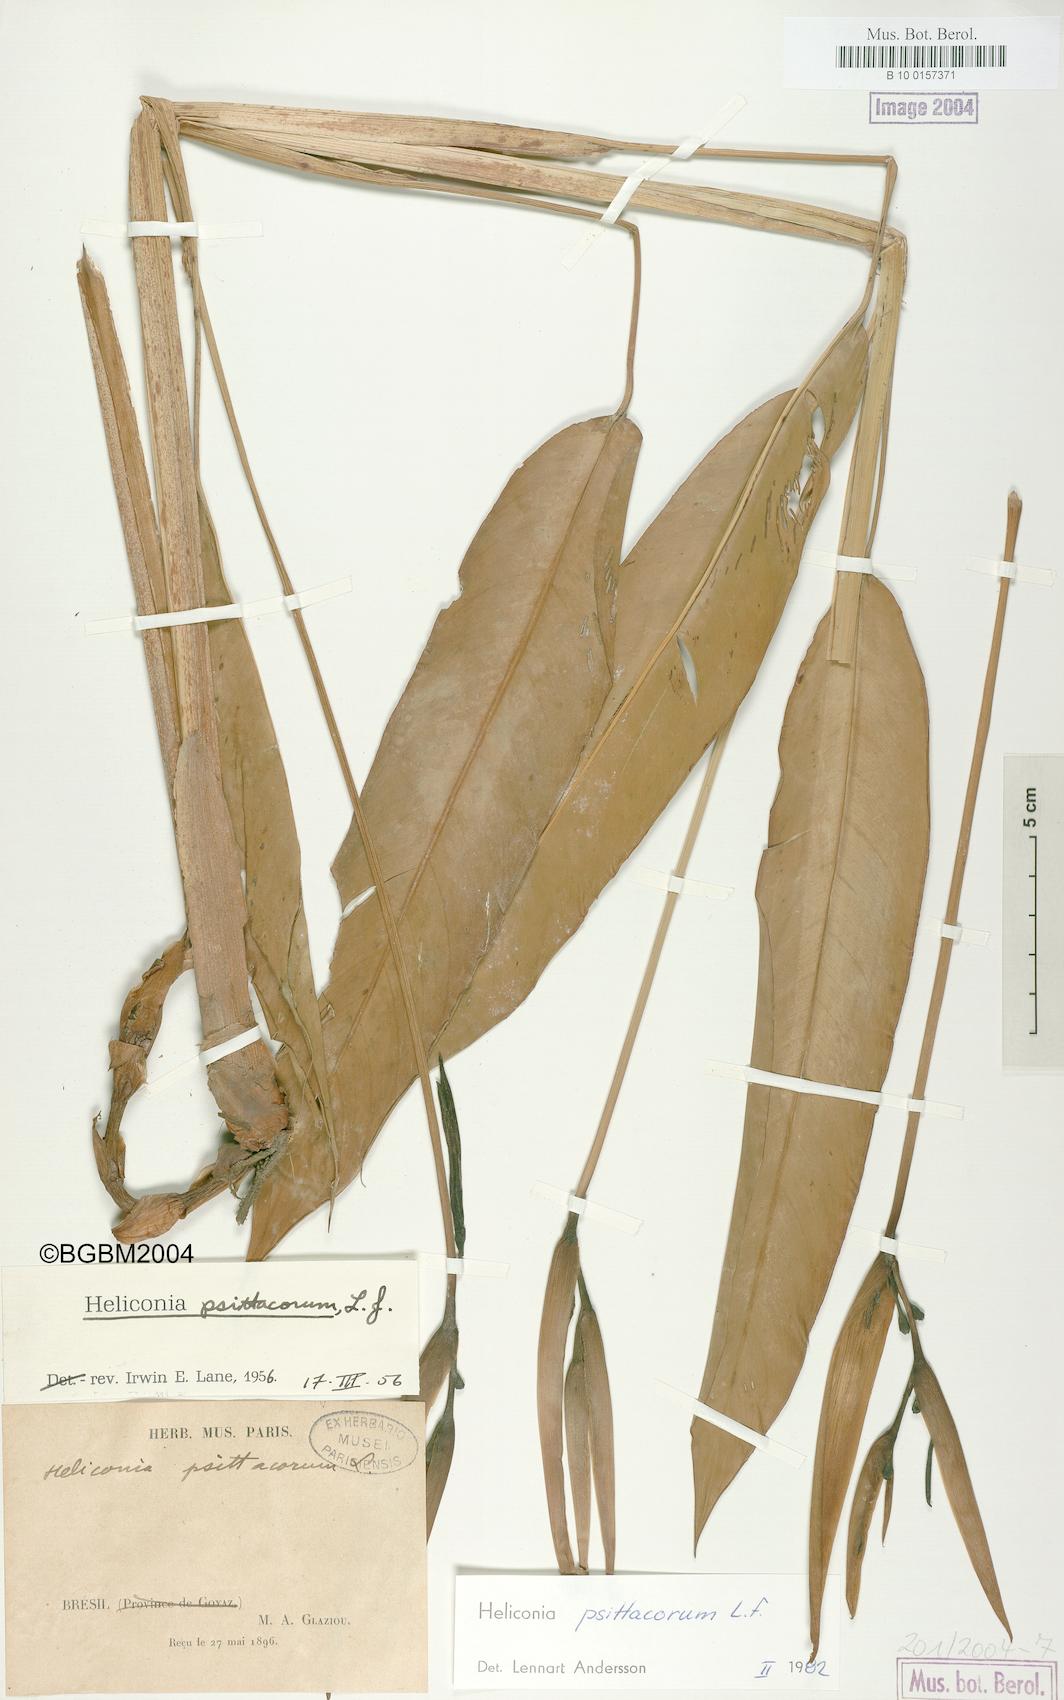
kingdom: Plantae
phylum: Tracheophyta
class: Liliopsida
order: Zingiberales
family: Heliconiaceae
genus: Heliconia
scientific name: Heliconia psittacorum
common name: Parrot's-flower
